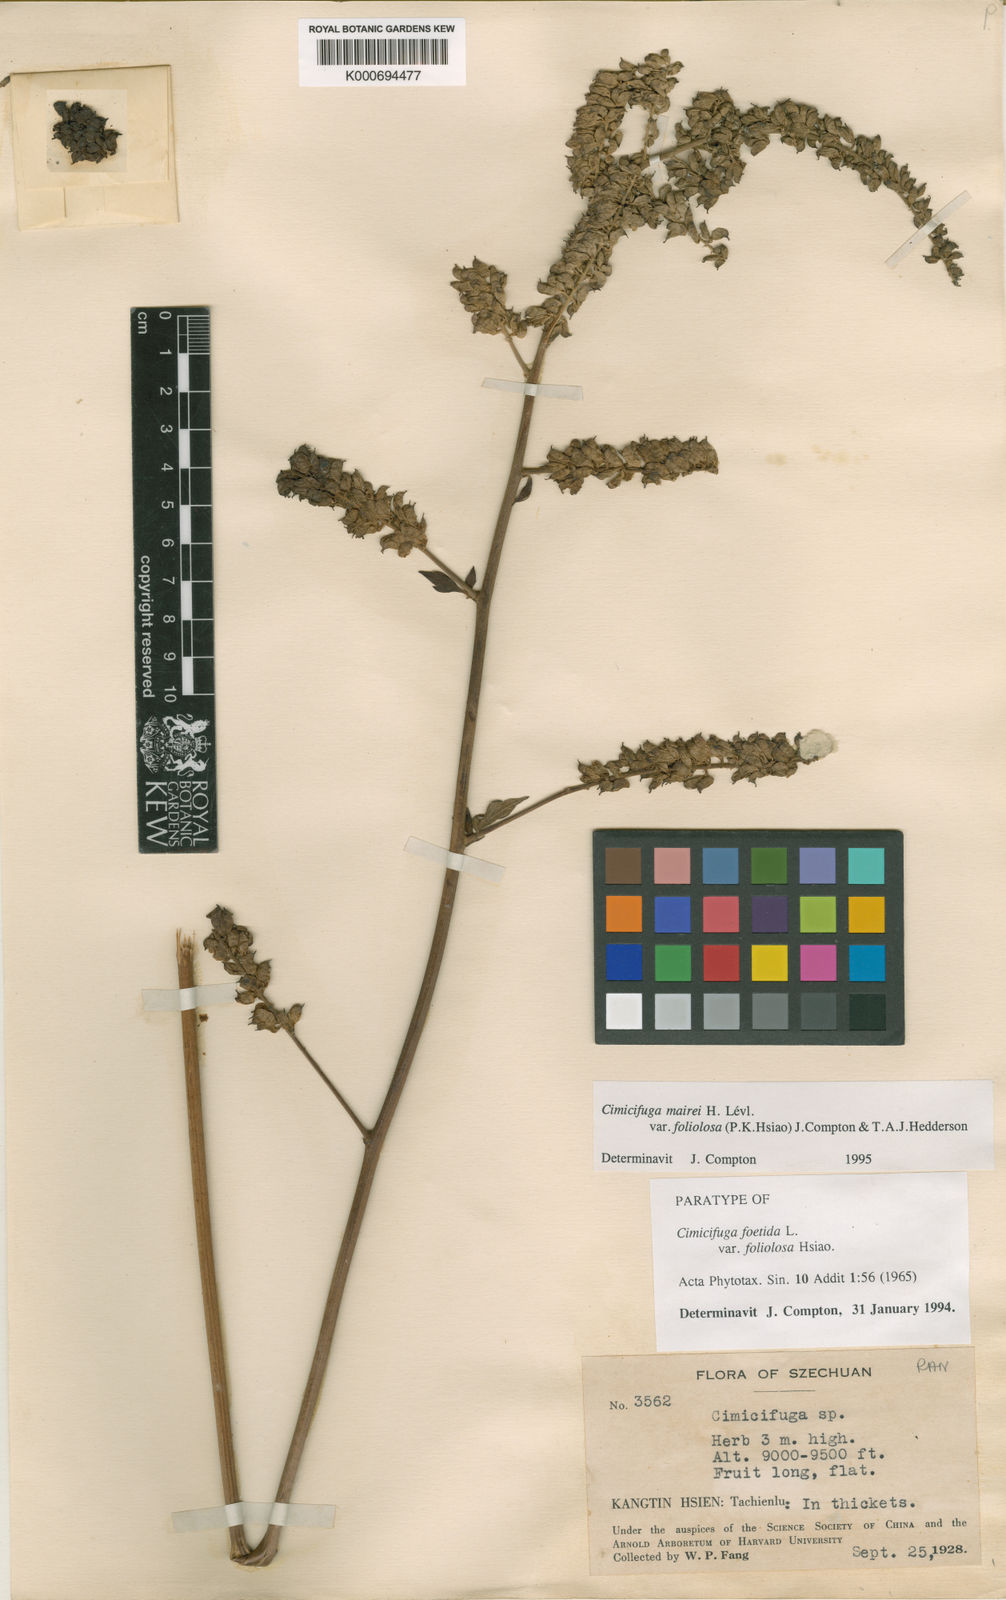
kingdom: Plantae
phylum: Tracheophyta
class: Magnoliopsida
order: Ranunculales
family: Ranunculaceae
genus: Actaea
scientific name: Actaea cimicifuga
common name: Chinese cimicifuga
